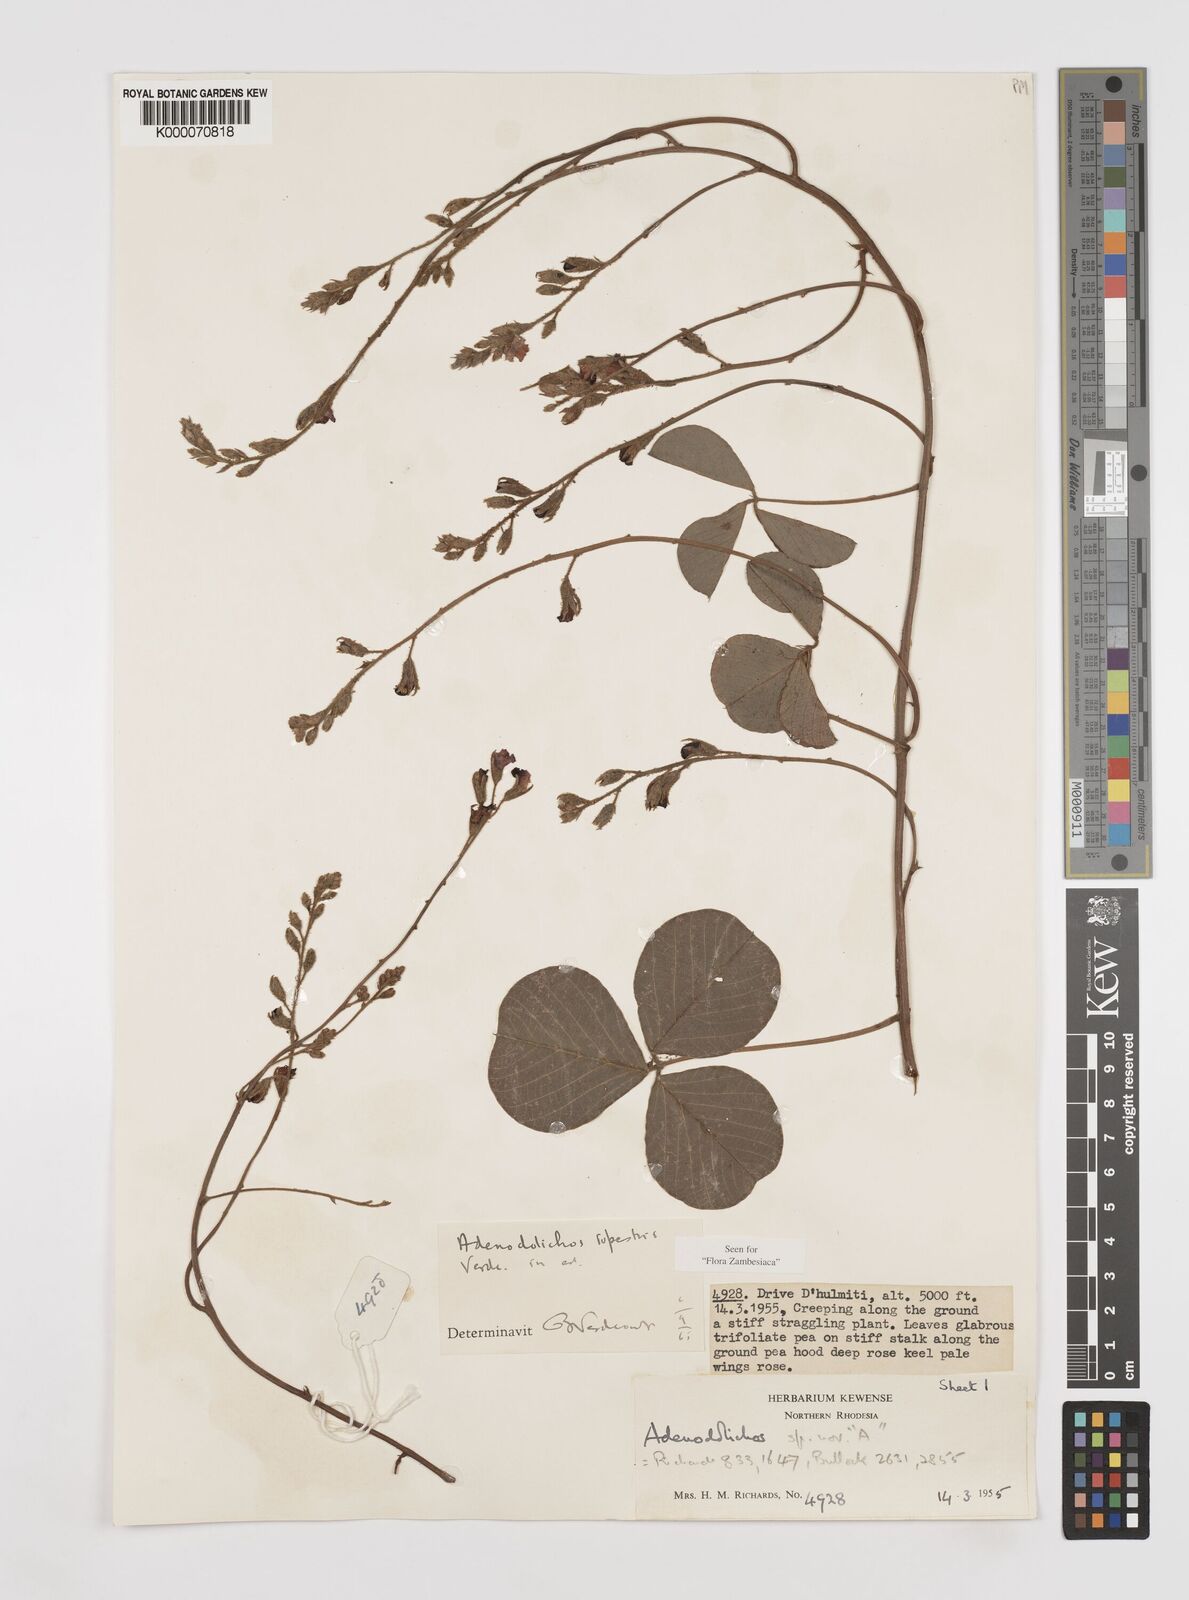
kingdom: Plantae
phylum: Tracheophyta
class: Magnoliopsida
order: Fabales
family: Fabaceae
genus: Adenodolichos
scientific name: Adenodolichos rupestris
